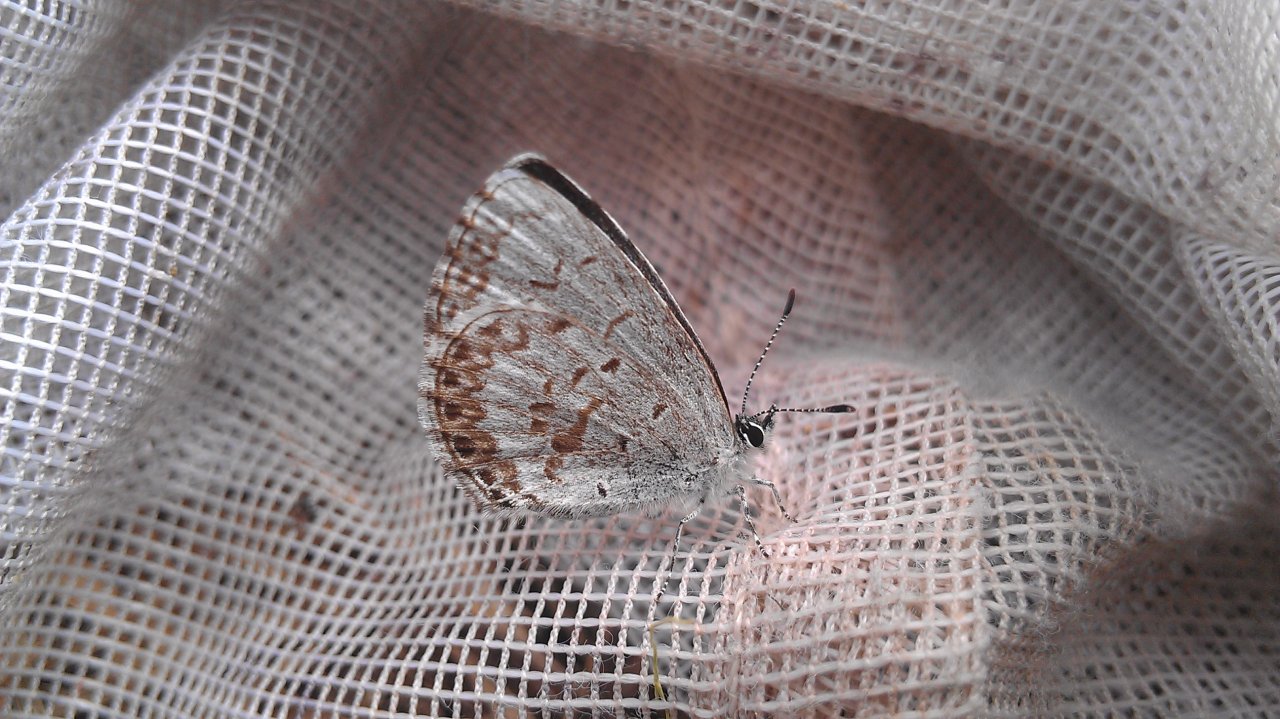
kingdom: Animalia
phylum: Arthropoda
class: Insecta
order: Lepidoptera
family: Lycaenidae
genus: Celastrina
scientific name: Celastrina lucia
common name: Northern Spring Azure
